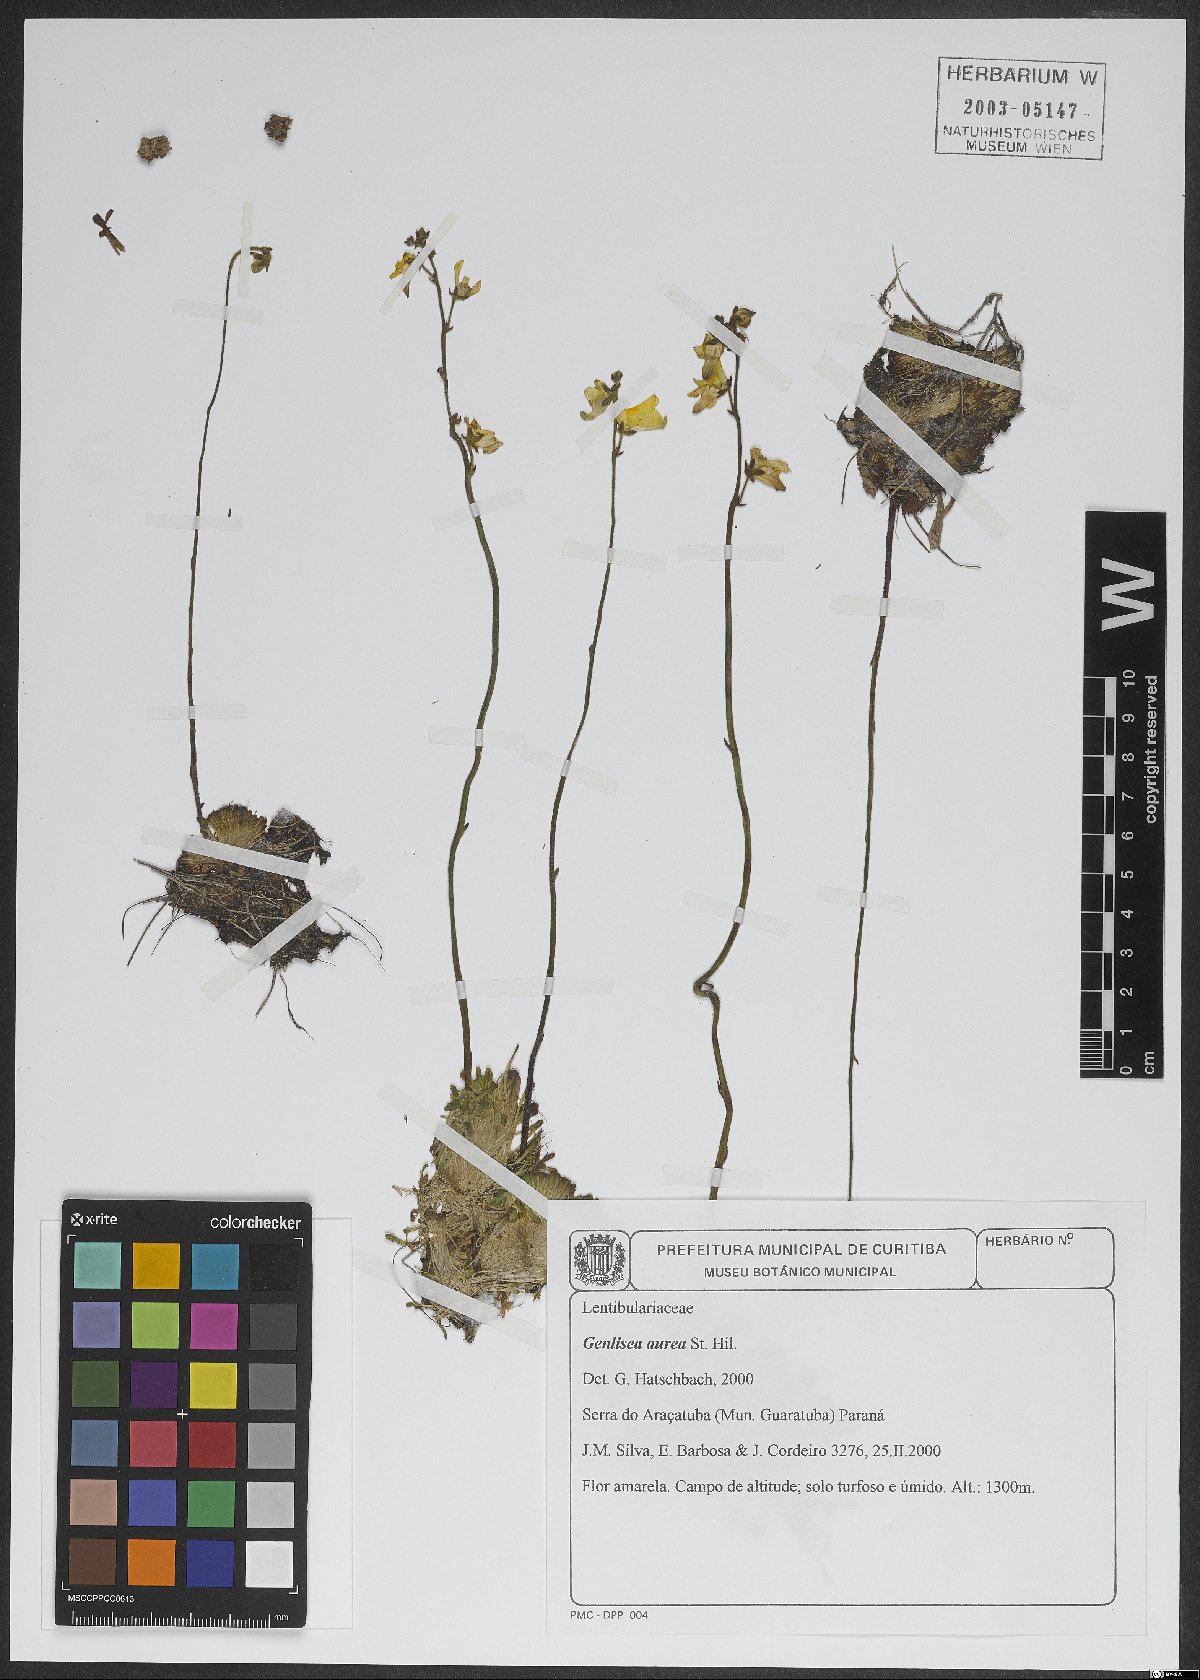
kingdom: Plantae
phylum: Tracheophyta
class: Magnoliopsida
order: Lamiales
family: Lentibulariaceae
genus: Genlisea
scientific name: Genlisea aurea
